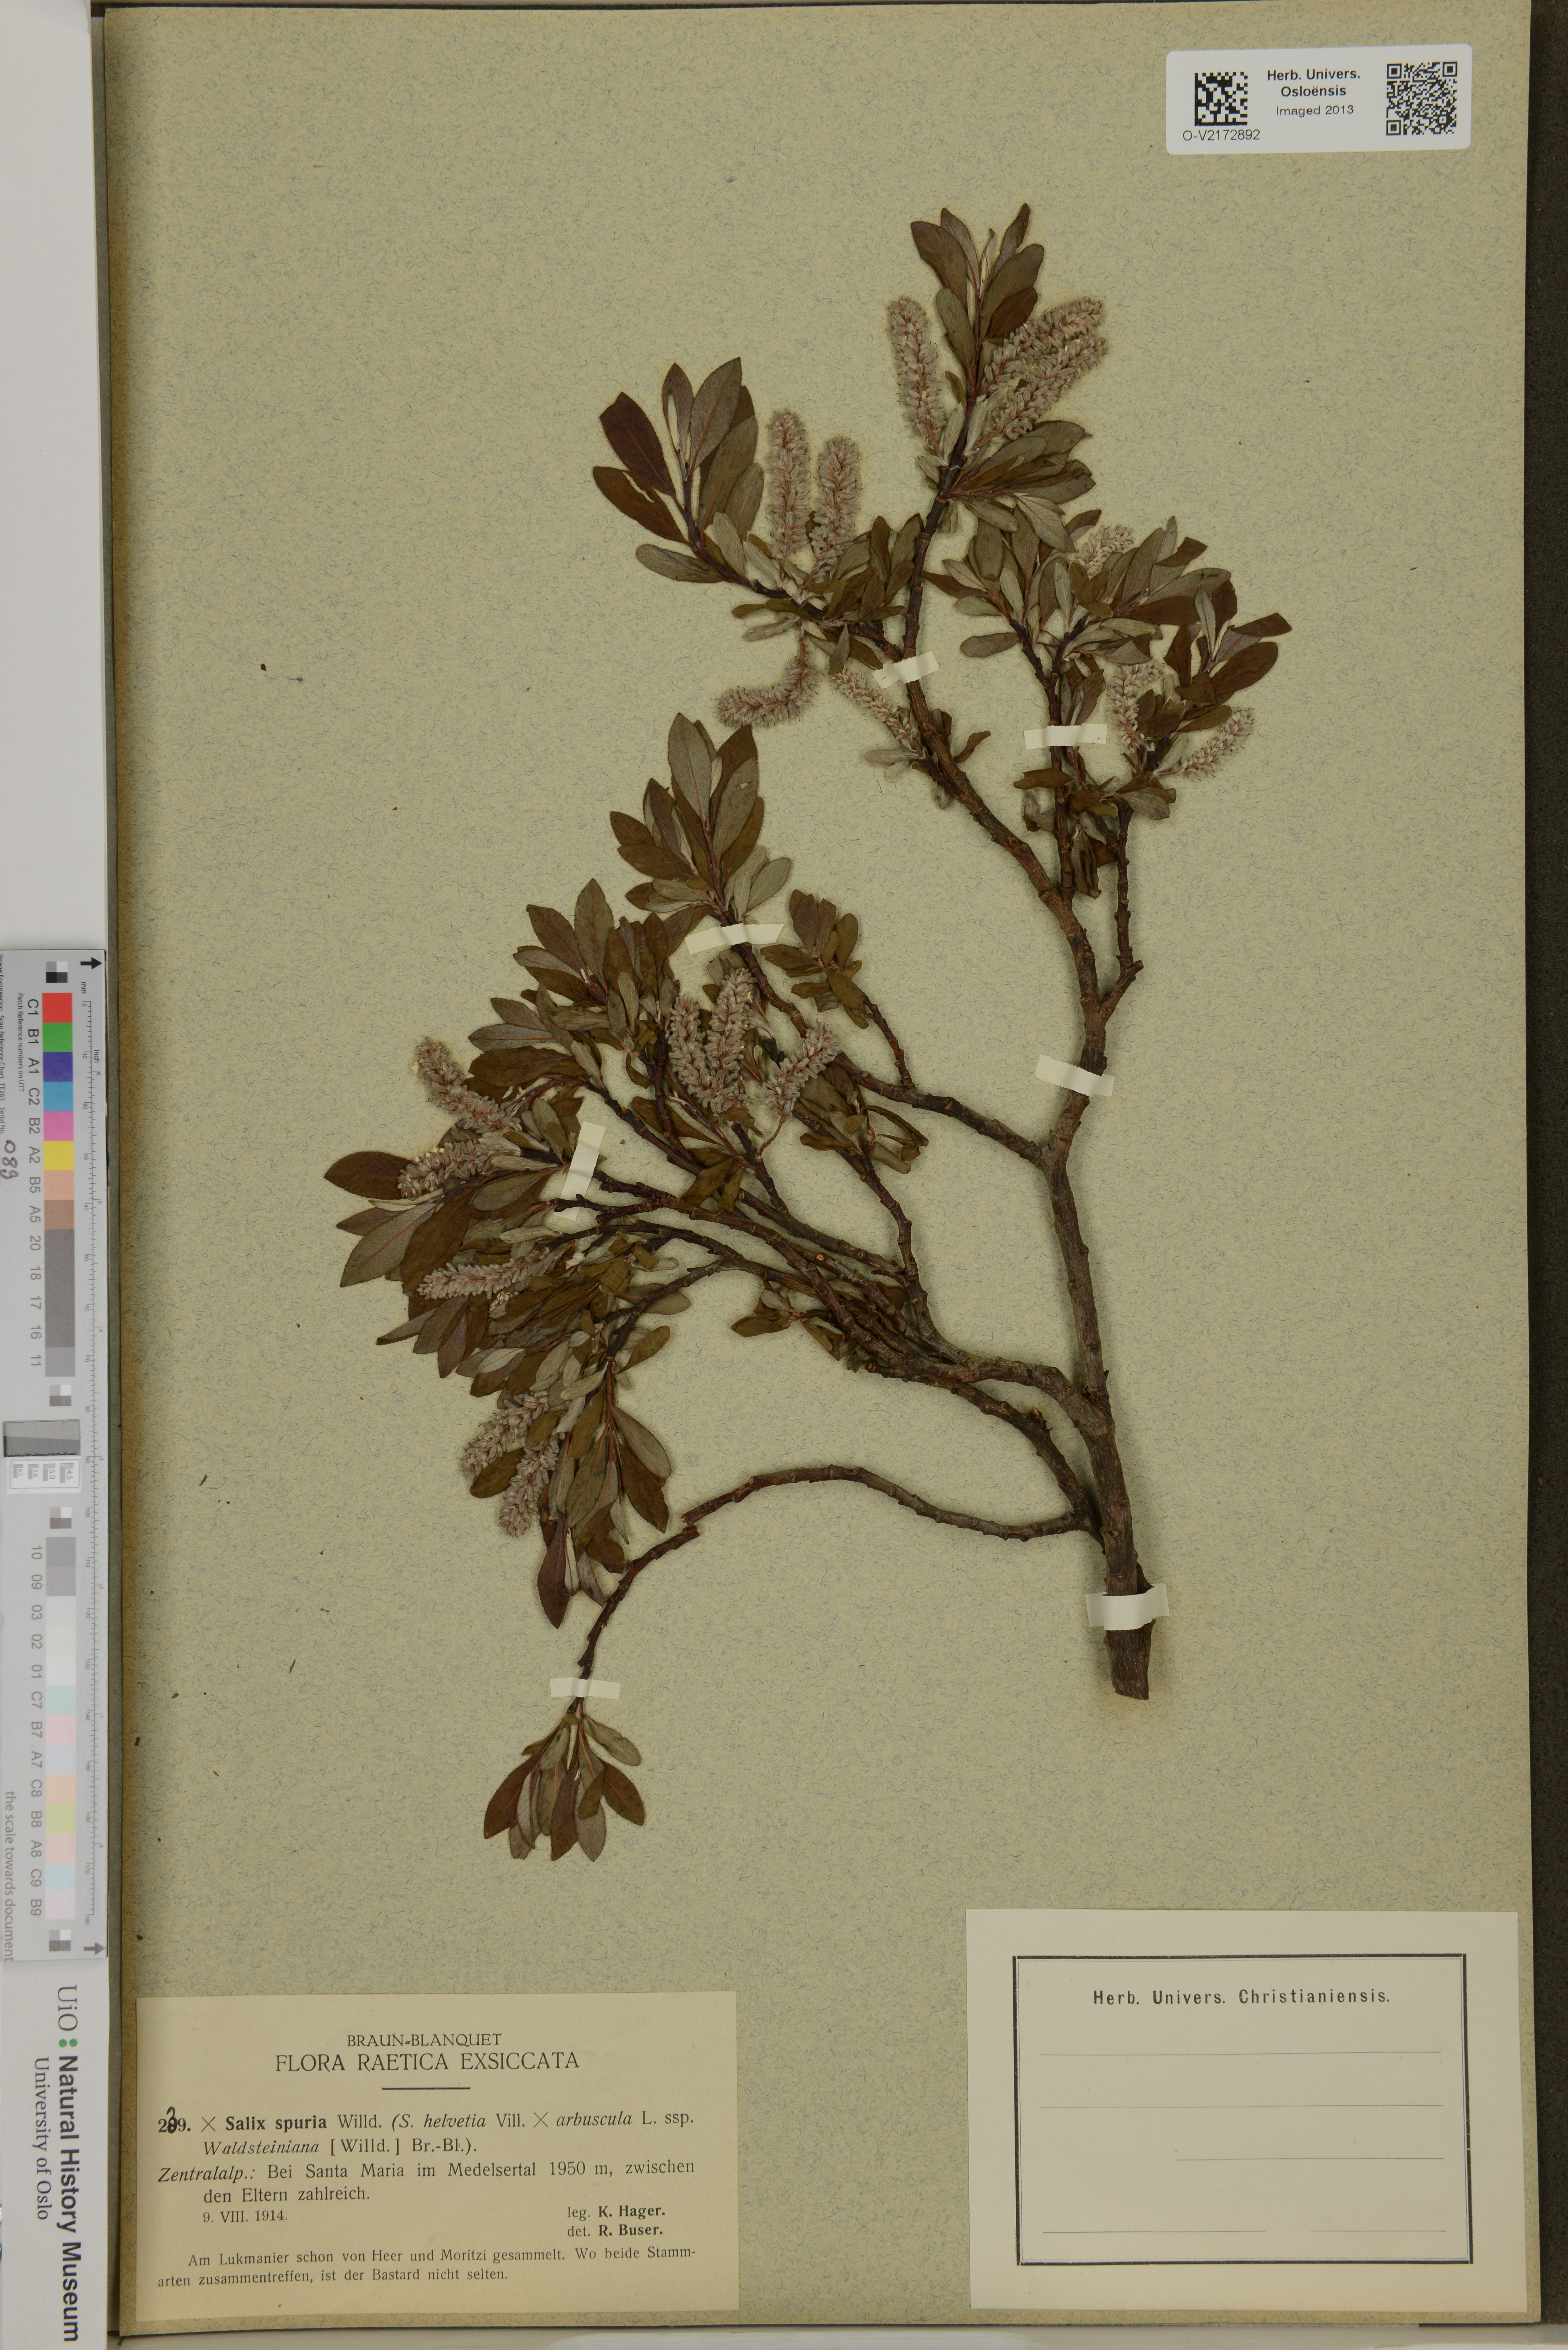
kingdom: Plantae
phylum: Tracheophyta
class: Magnoliopsida
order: Malpighiales
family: Salicaceae
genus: Salix
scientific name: Salix
